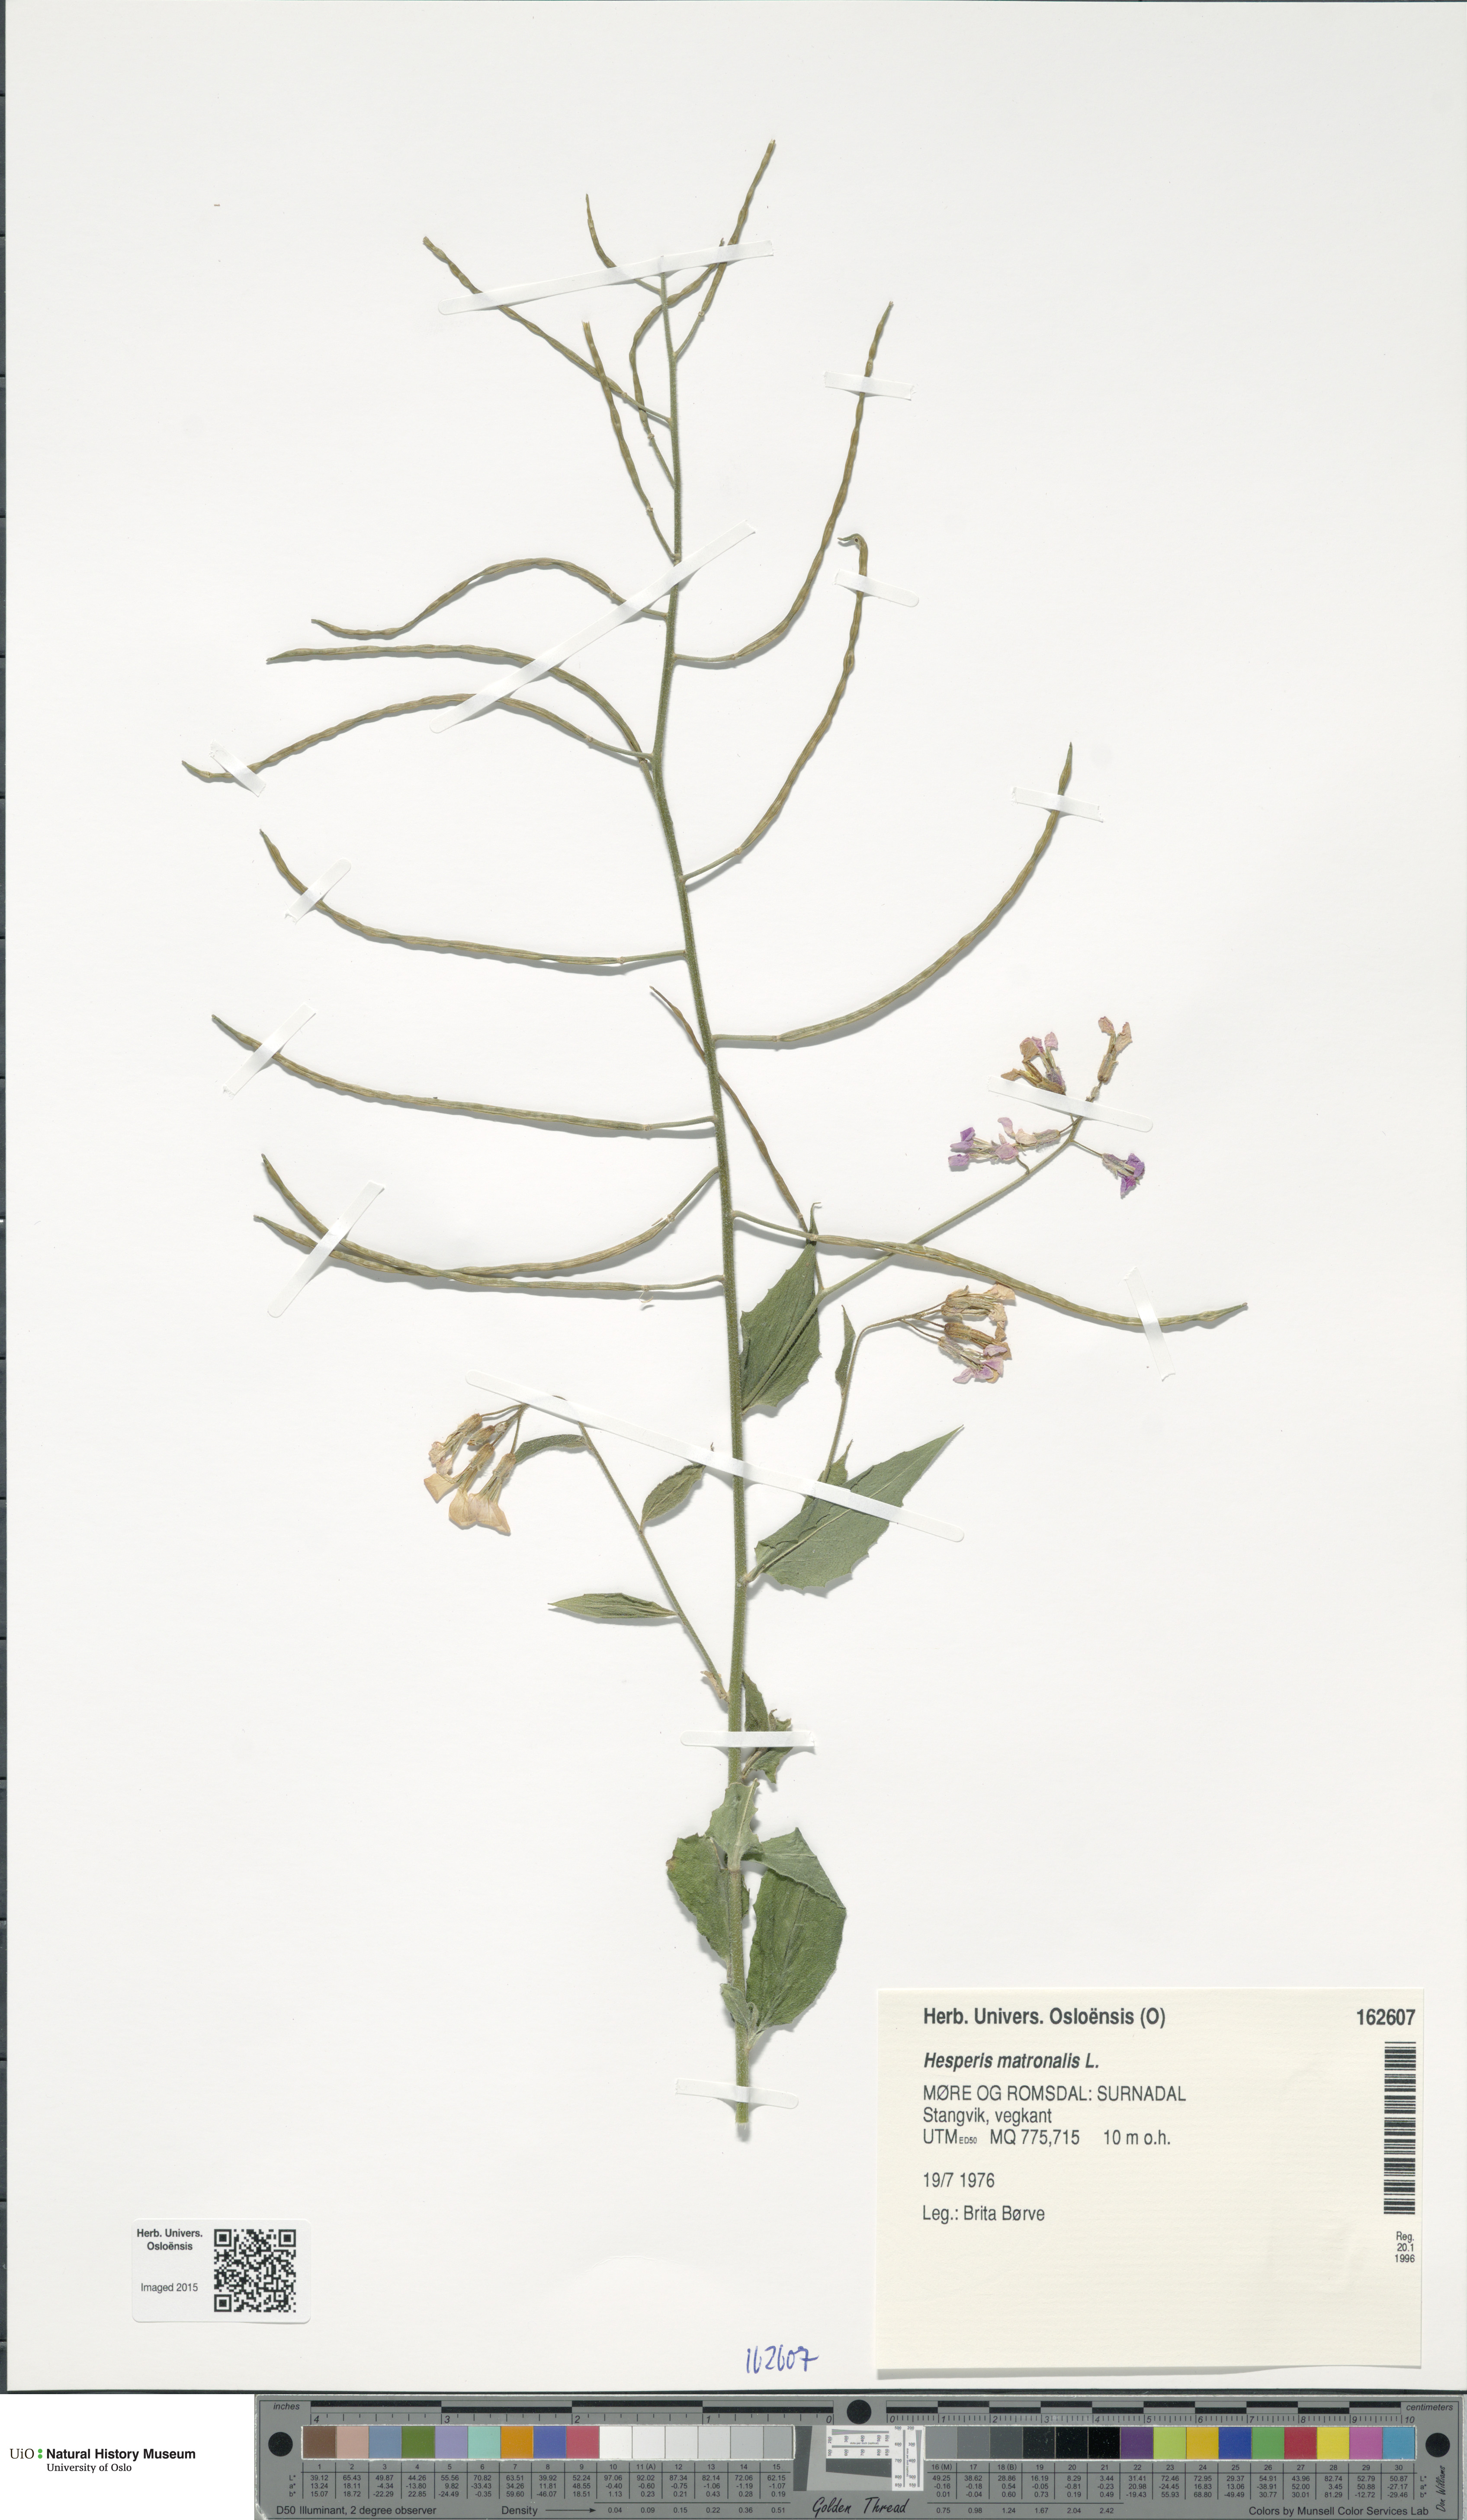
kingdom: Plantae
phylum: Tracheophyta
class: Magnoliopsida
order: Brassicales
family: Brassicaceae
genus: Hesperis
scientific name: Hesperis matronalis
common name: Dame's-violet
